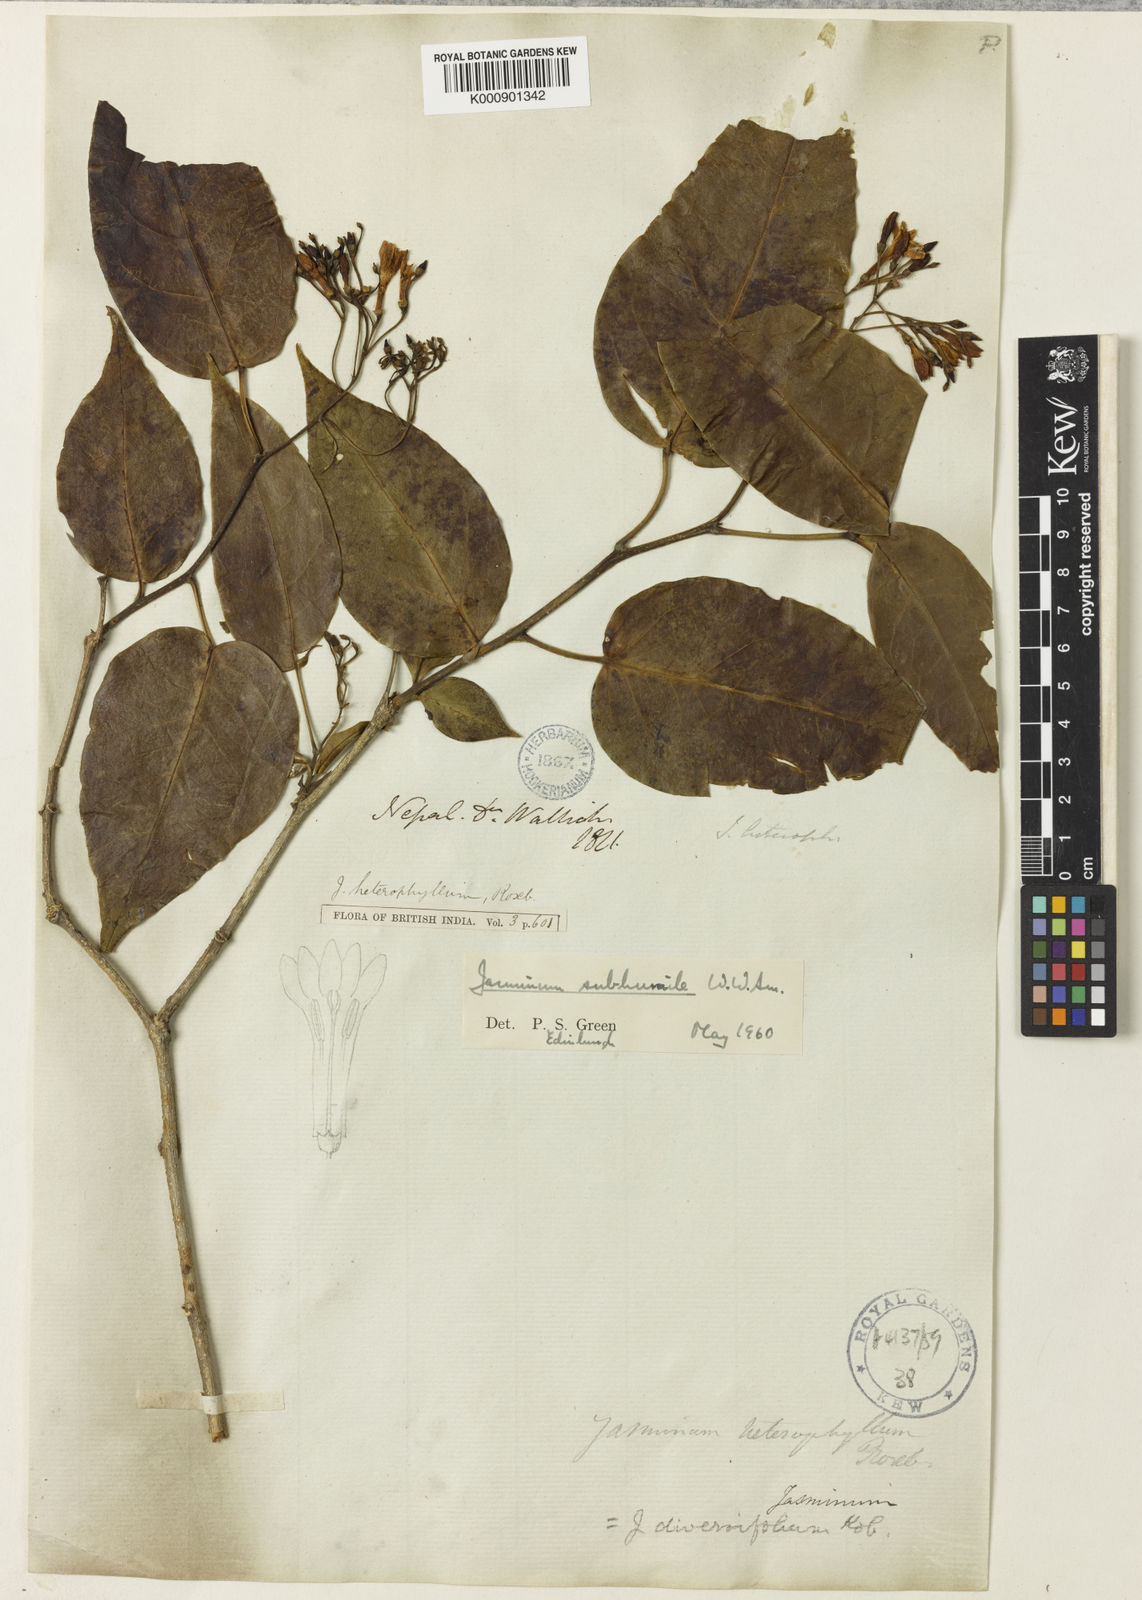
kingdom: Plantae
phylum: Tracheophyta
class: Magnoliopsida
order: Lamiales
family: Oleaceae
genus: Chrysojasminum
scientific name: Chrysojasminum subhumile
